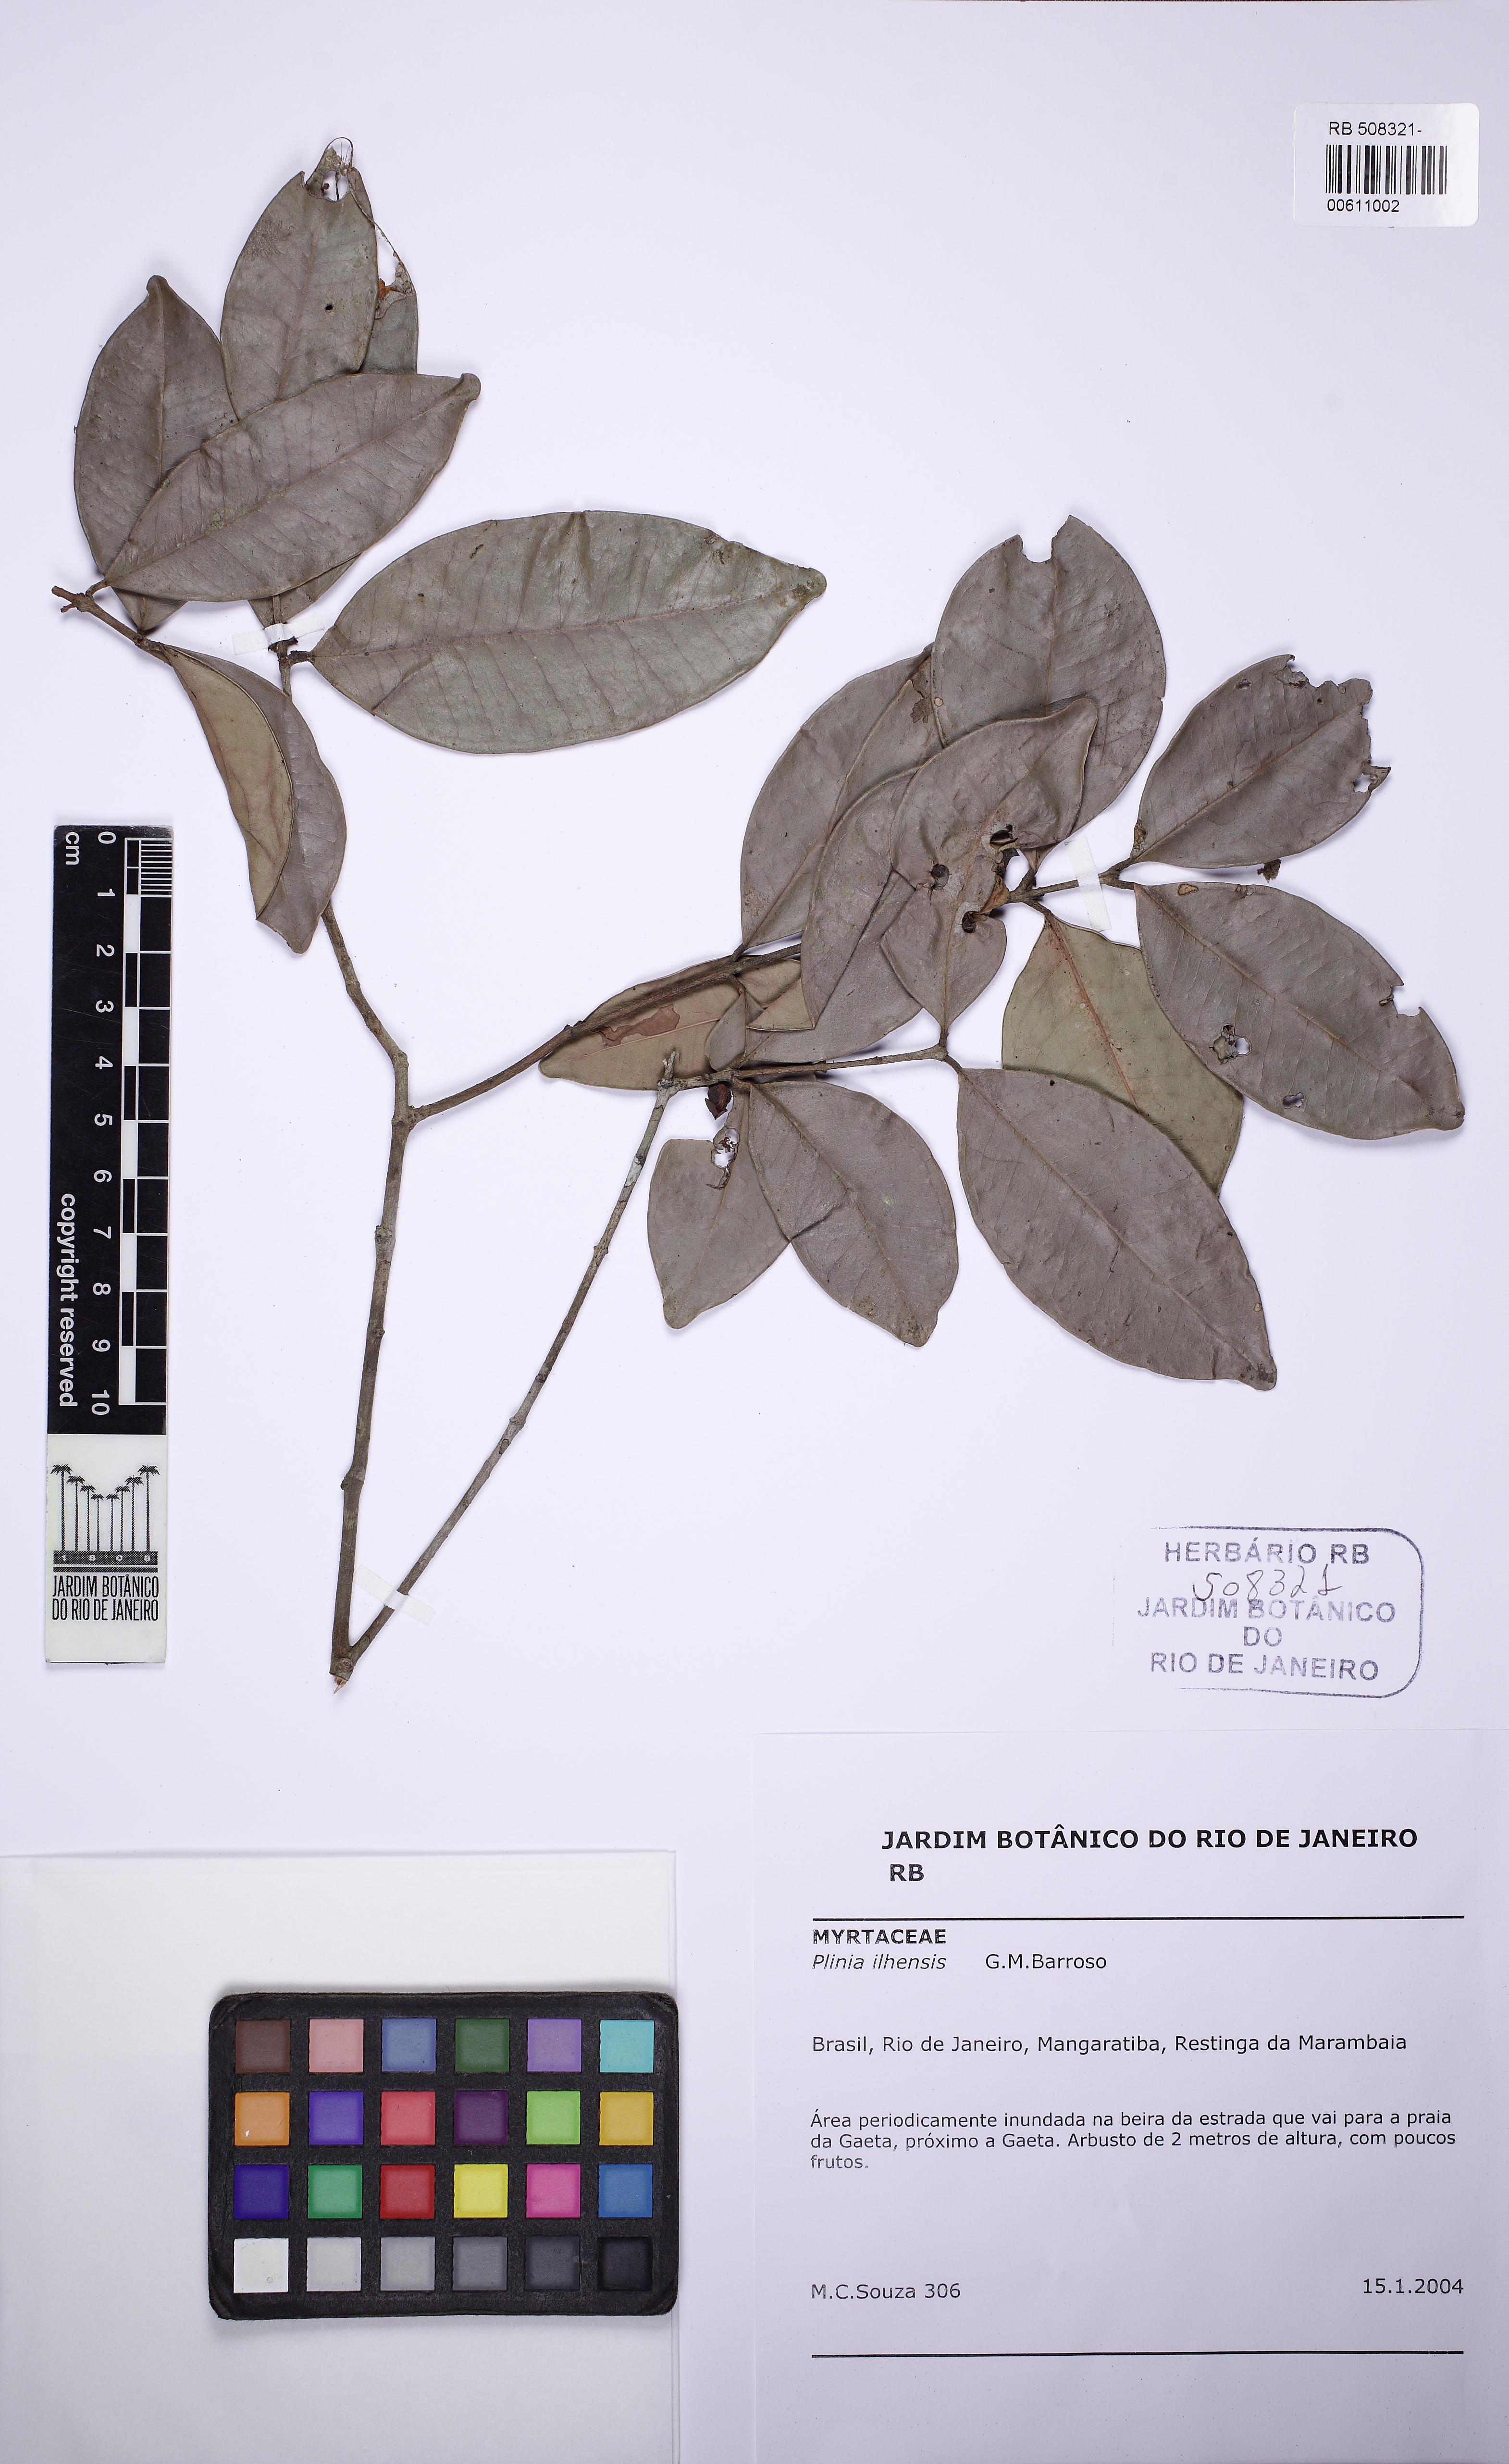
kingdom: Plantae
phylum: Tracheophyta
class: Magnoliopsida
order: Myrtales
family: Myrtaceae
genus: Plinia
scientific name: Plinia ilhensis
